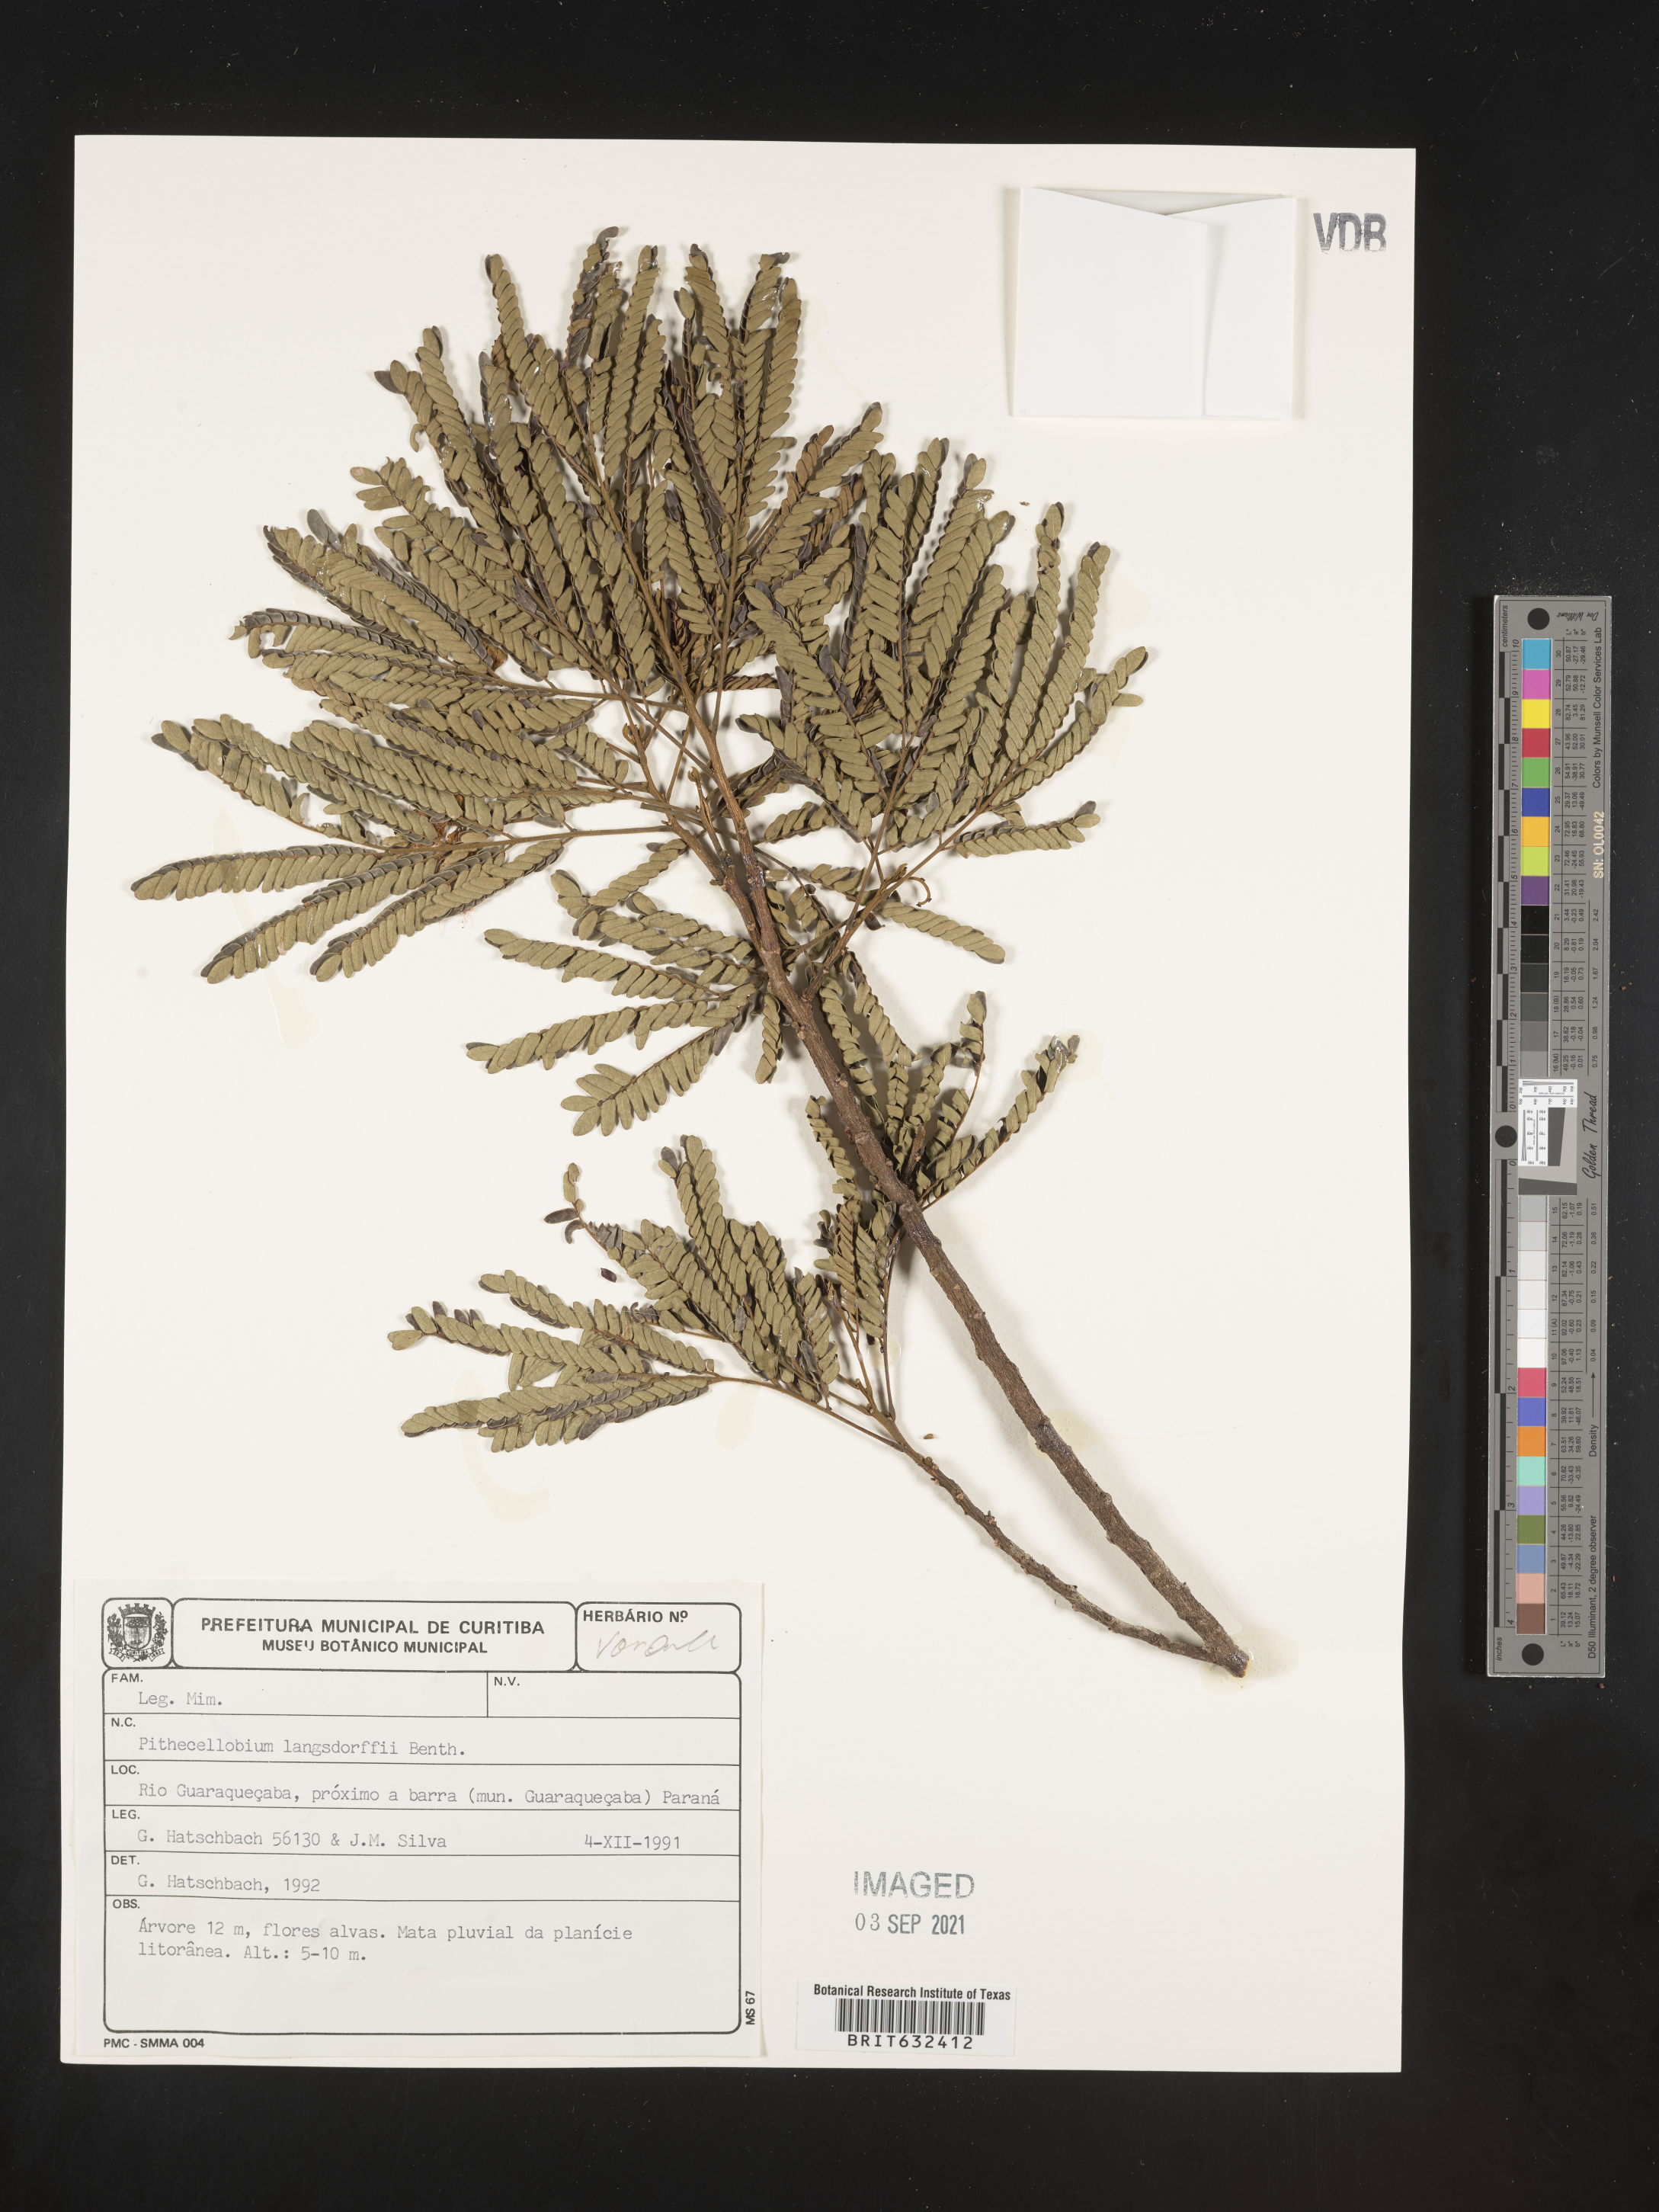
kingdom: Plantae
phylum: Tracheophyta
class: Magnoliopsida
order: Fabales
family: Fabaceae
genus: Pithecellobium
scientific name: Pithecellobium
